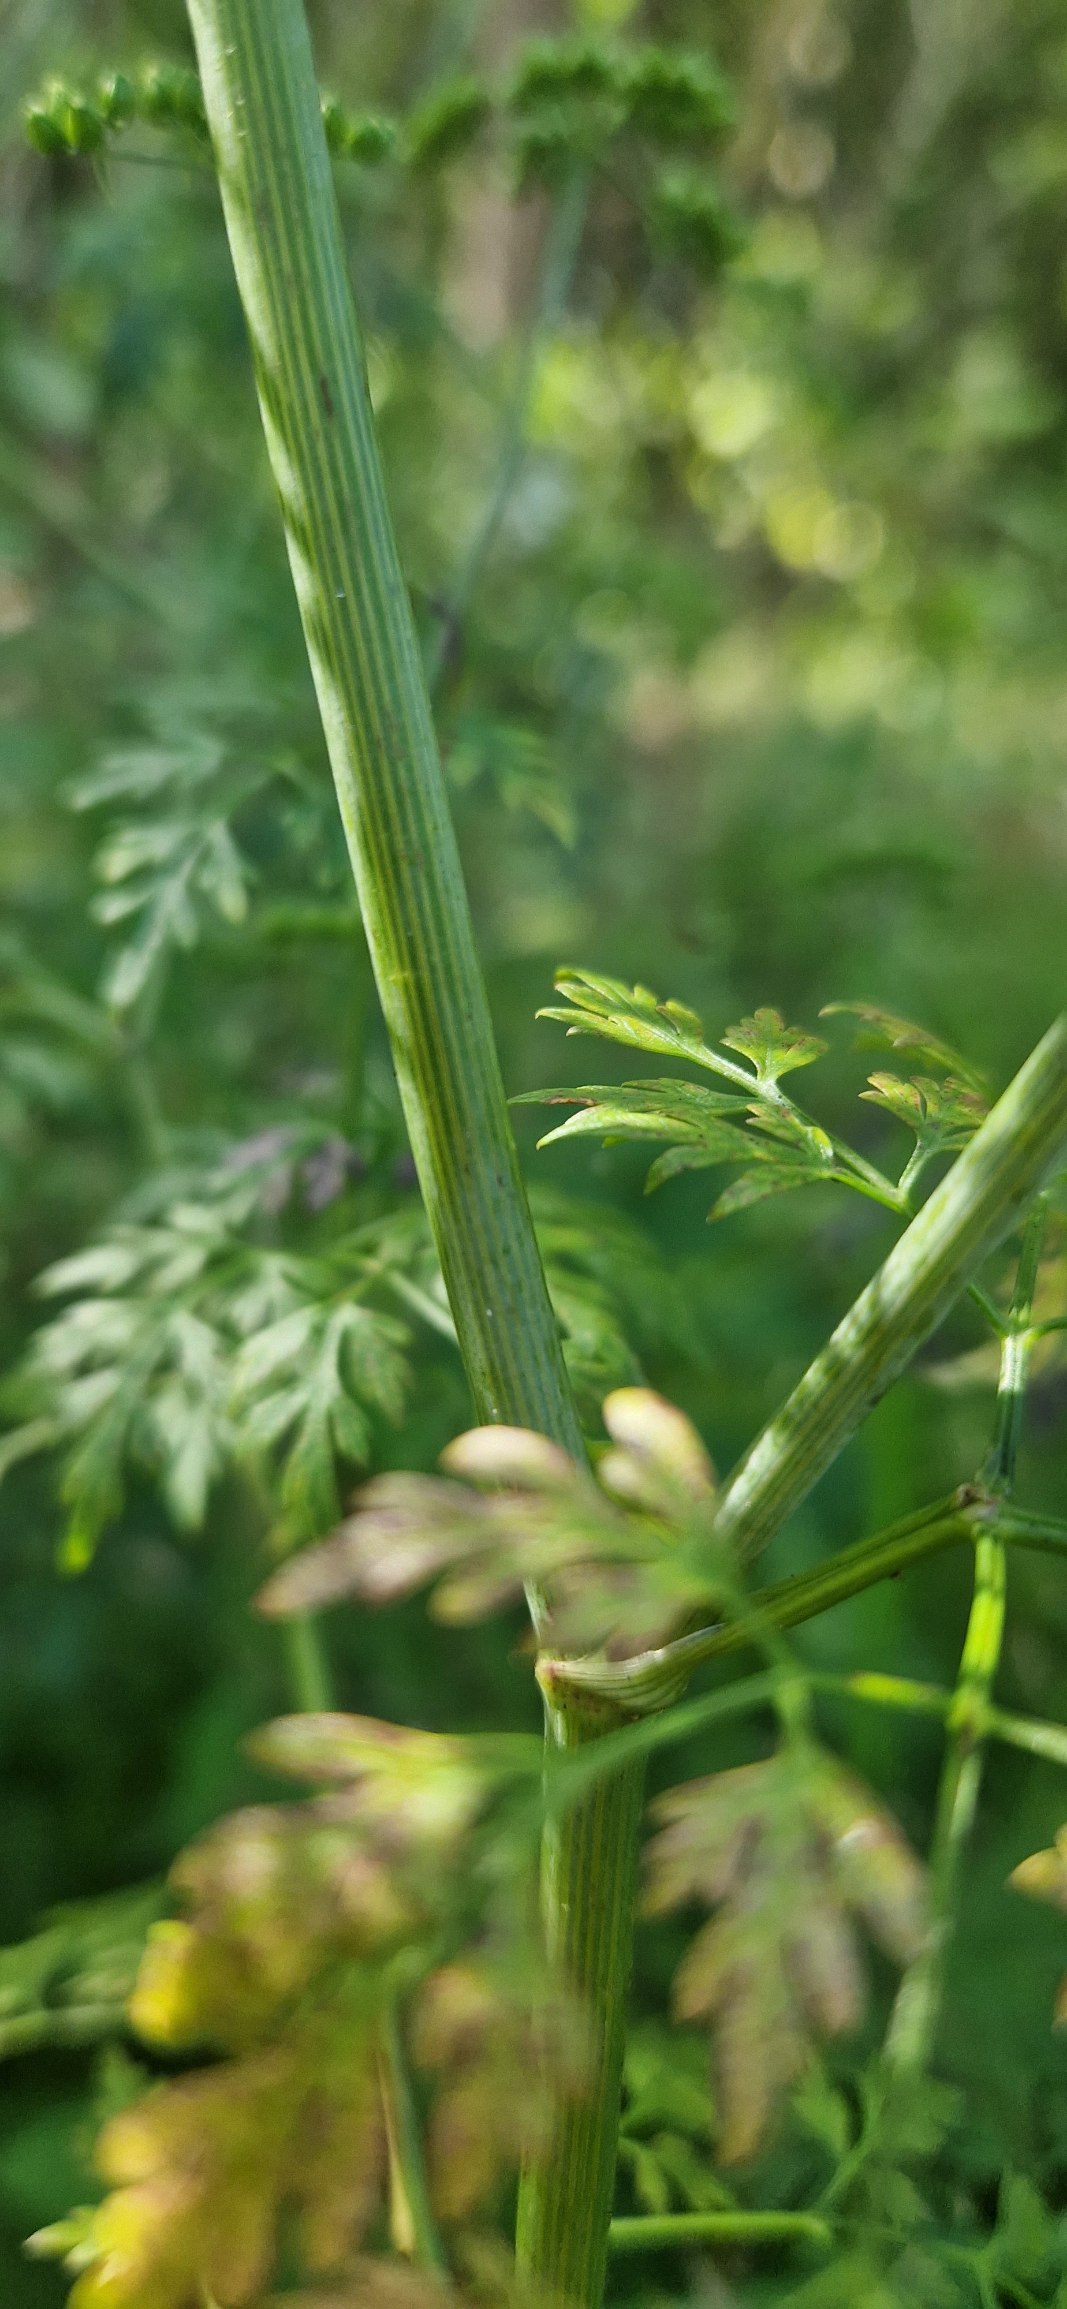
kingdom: Plantae
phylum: Tracheophyta
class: Magnoliopsida
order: Apiales
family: Apiaceae
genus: Conium
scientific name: Conium maculatum
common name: Skarntyde
